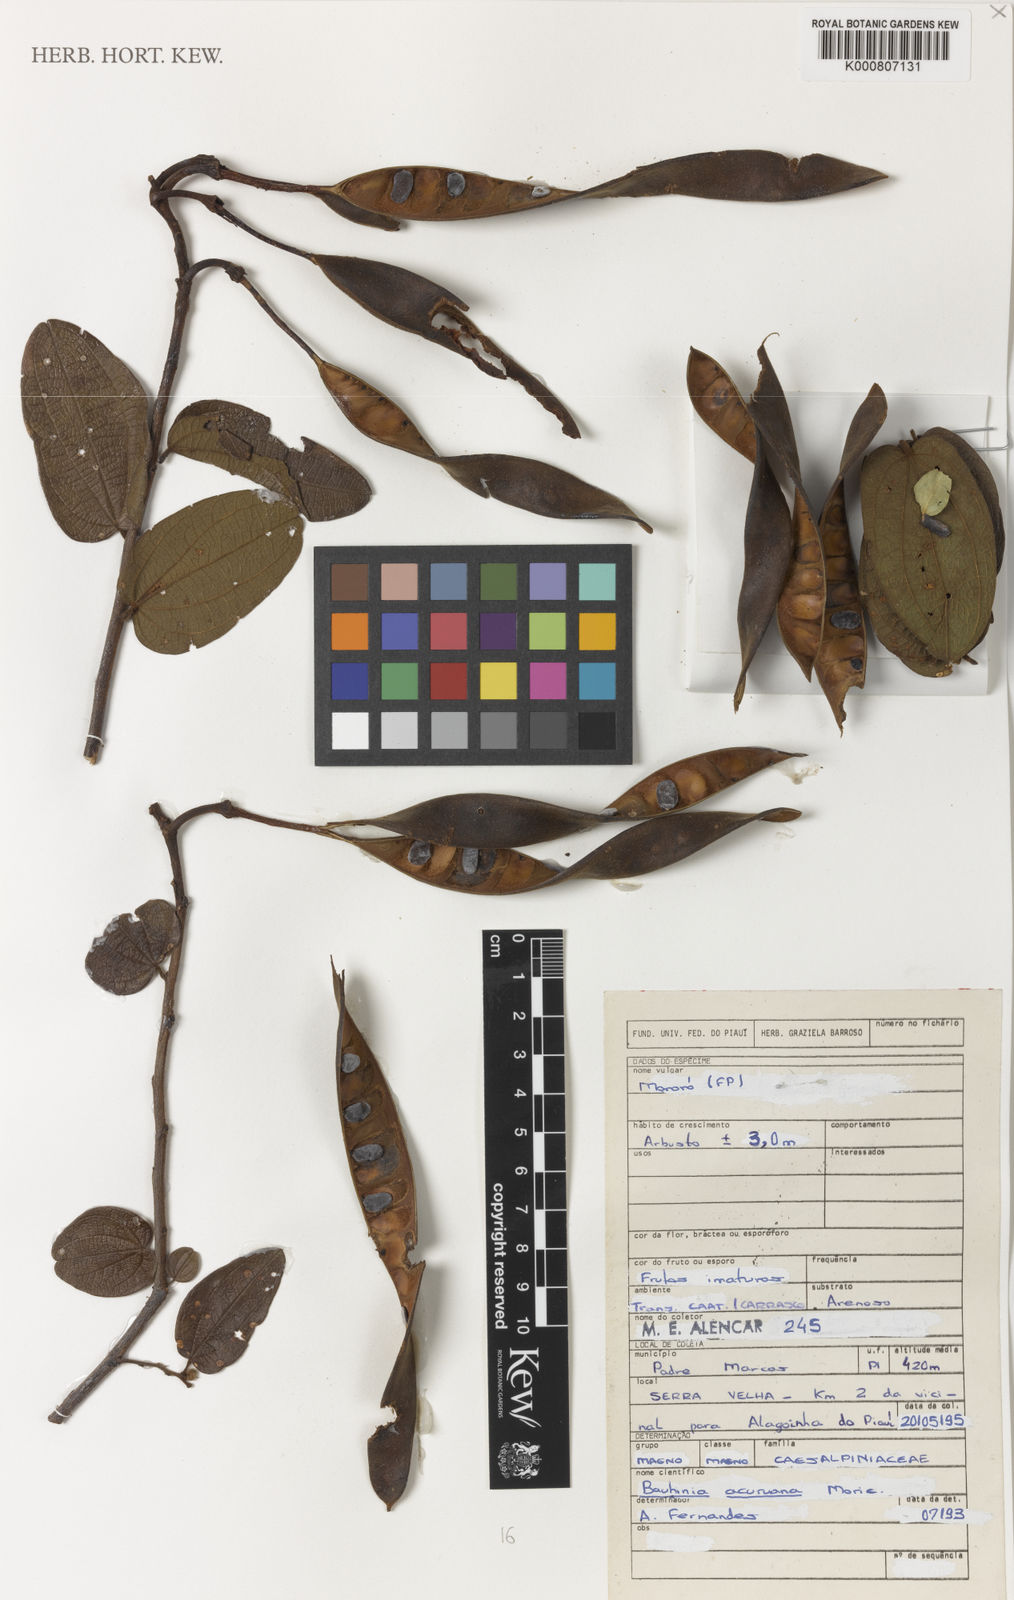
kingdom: Plantae
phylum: Tracheophyta
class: Magnoliopsida
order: Fabales
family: Fabaceae
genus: Bauhinia
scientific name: Bauhinia acuruana
